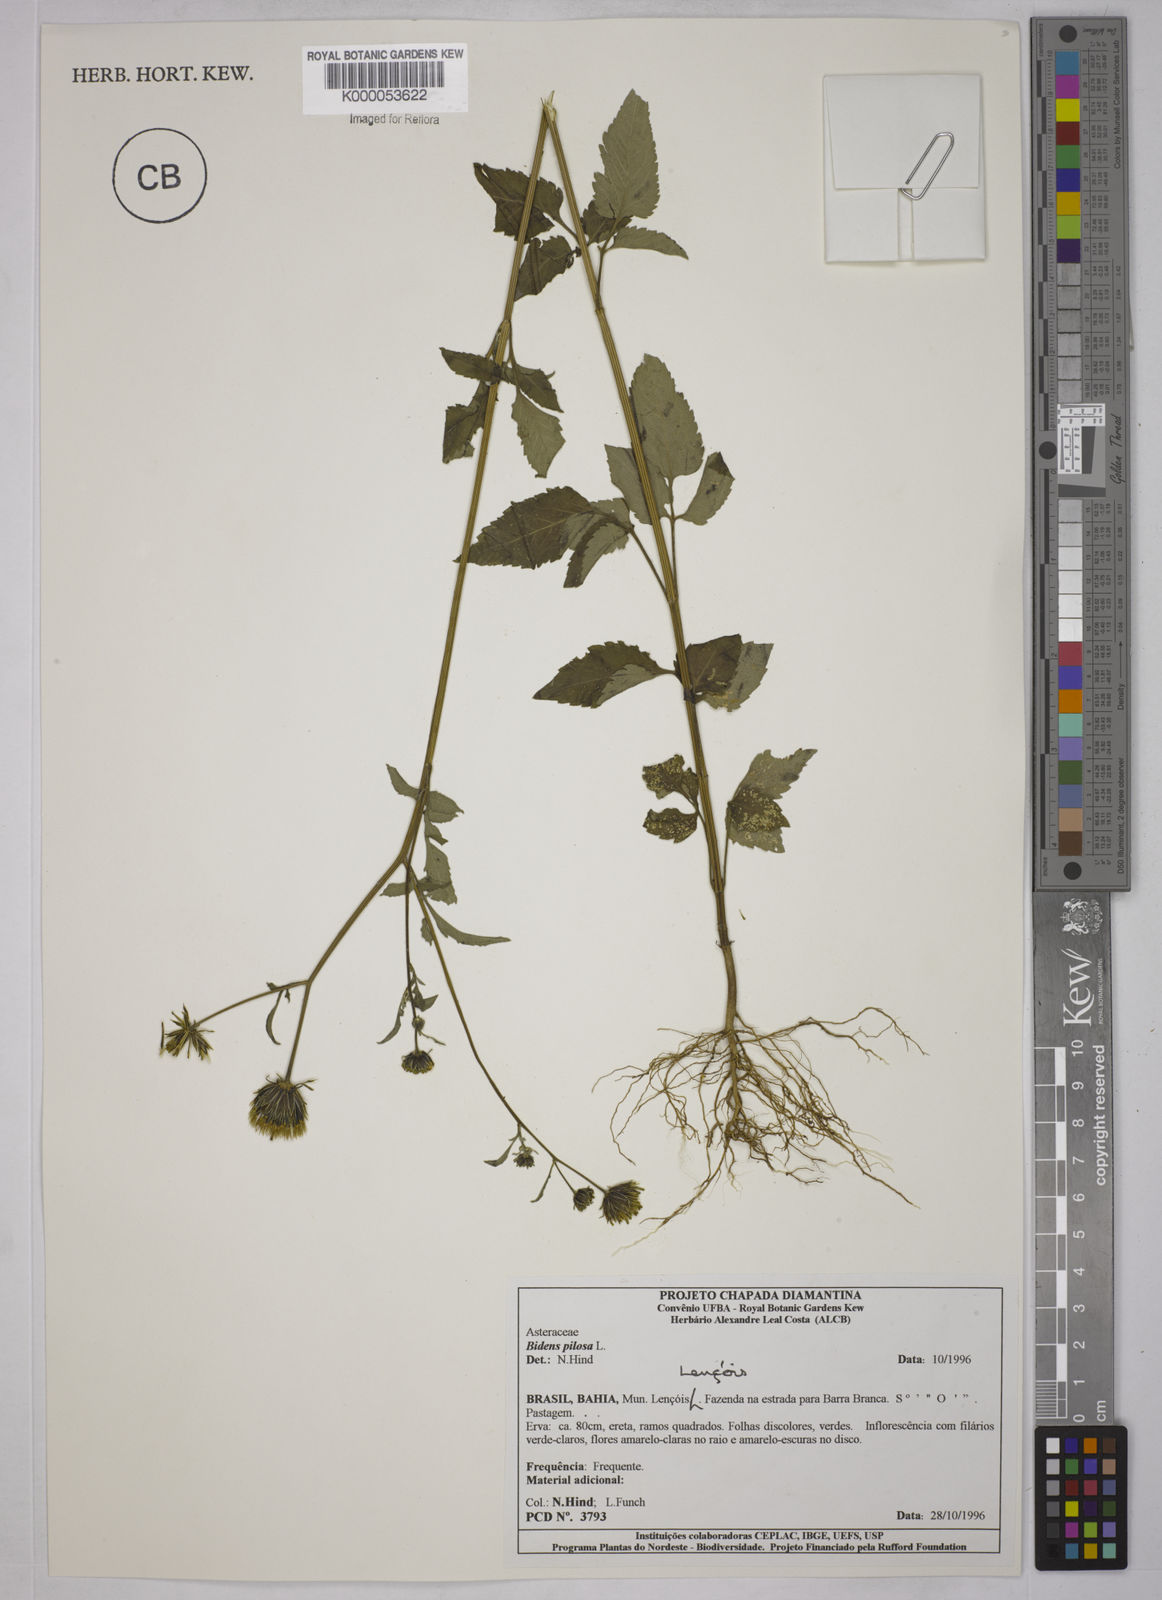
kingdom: Plantae
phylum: Tracheophyta
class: Magnoliopsida
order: Asterales
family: Asteraceae
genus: Bidens
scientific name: Bidens pilosa
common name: Black-jack
